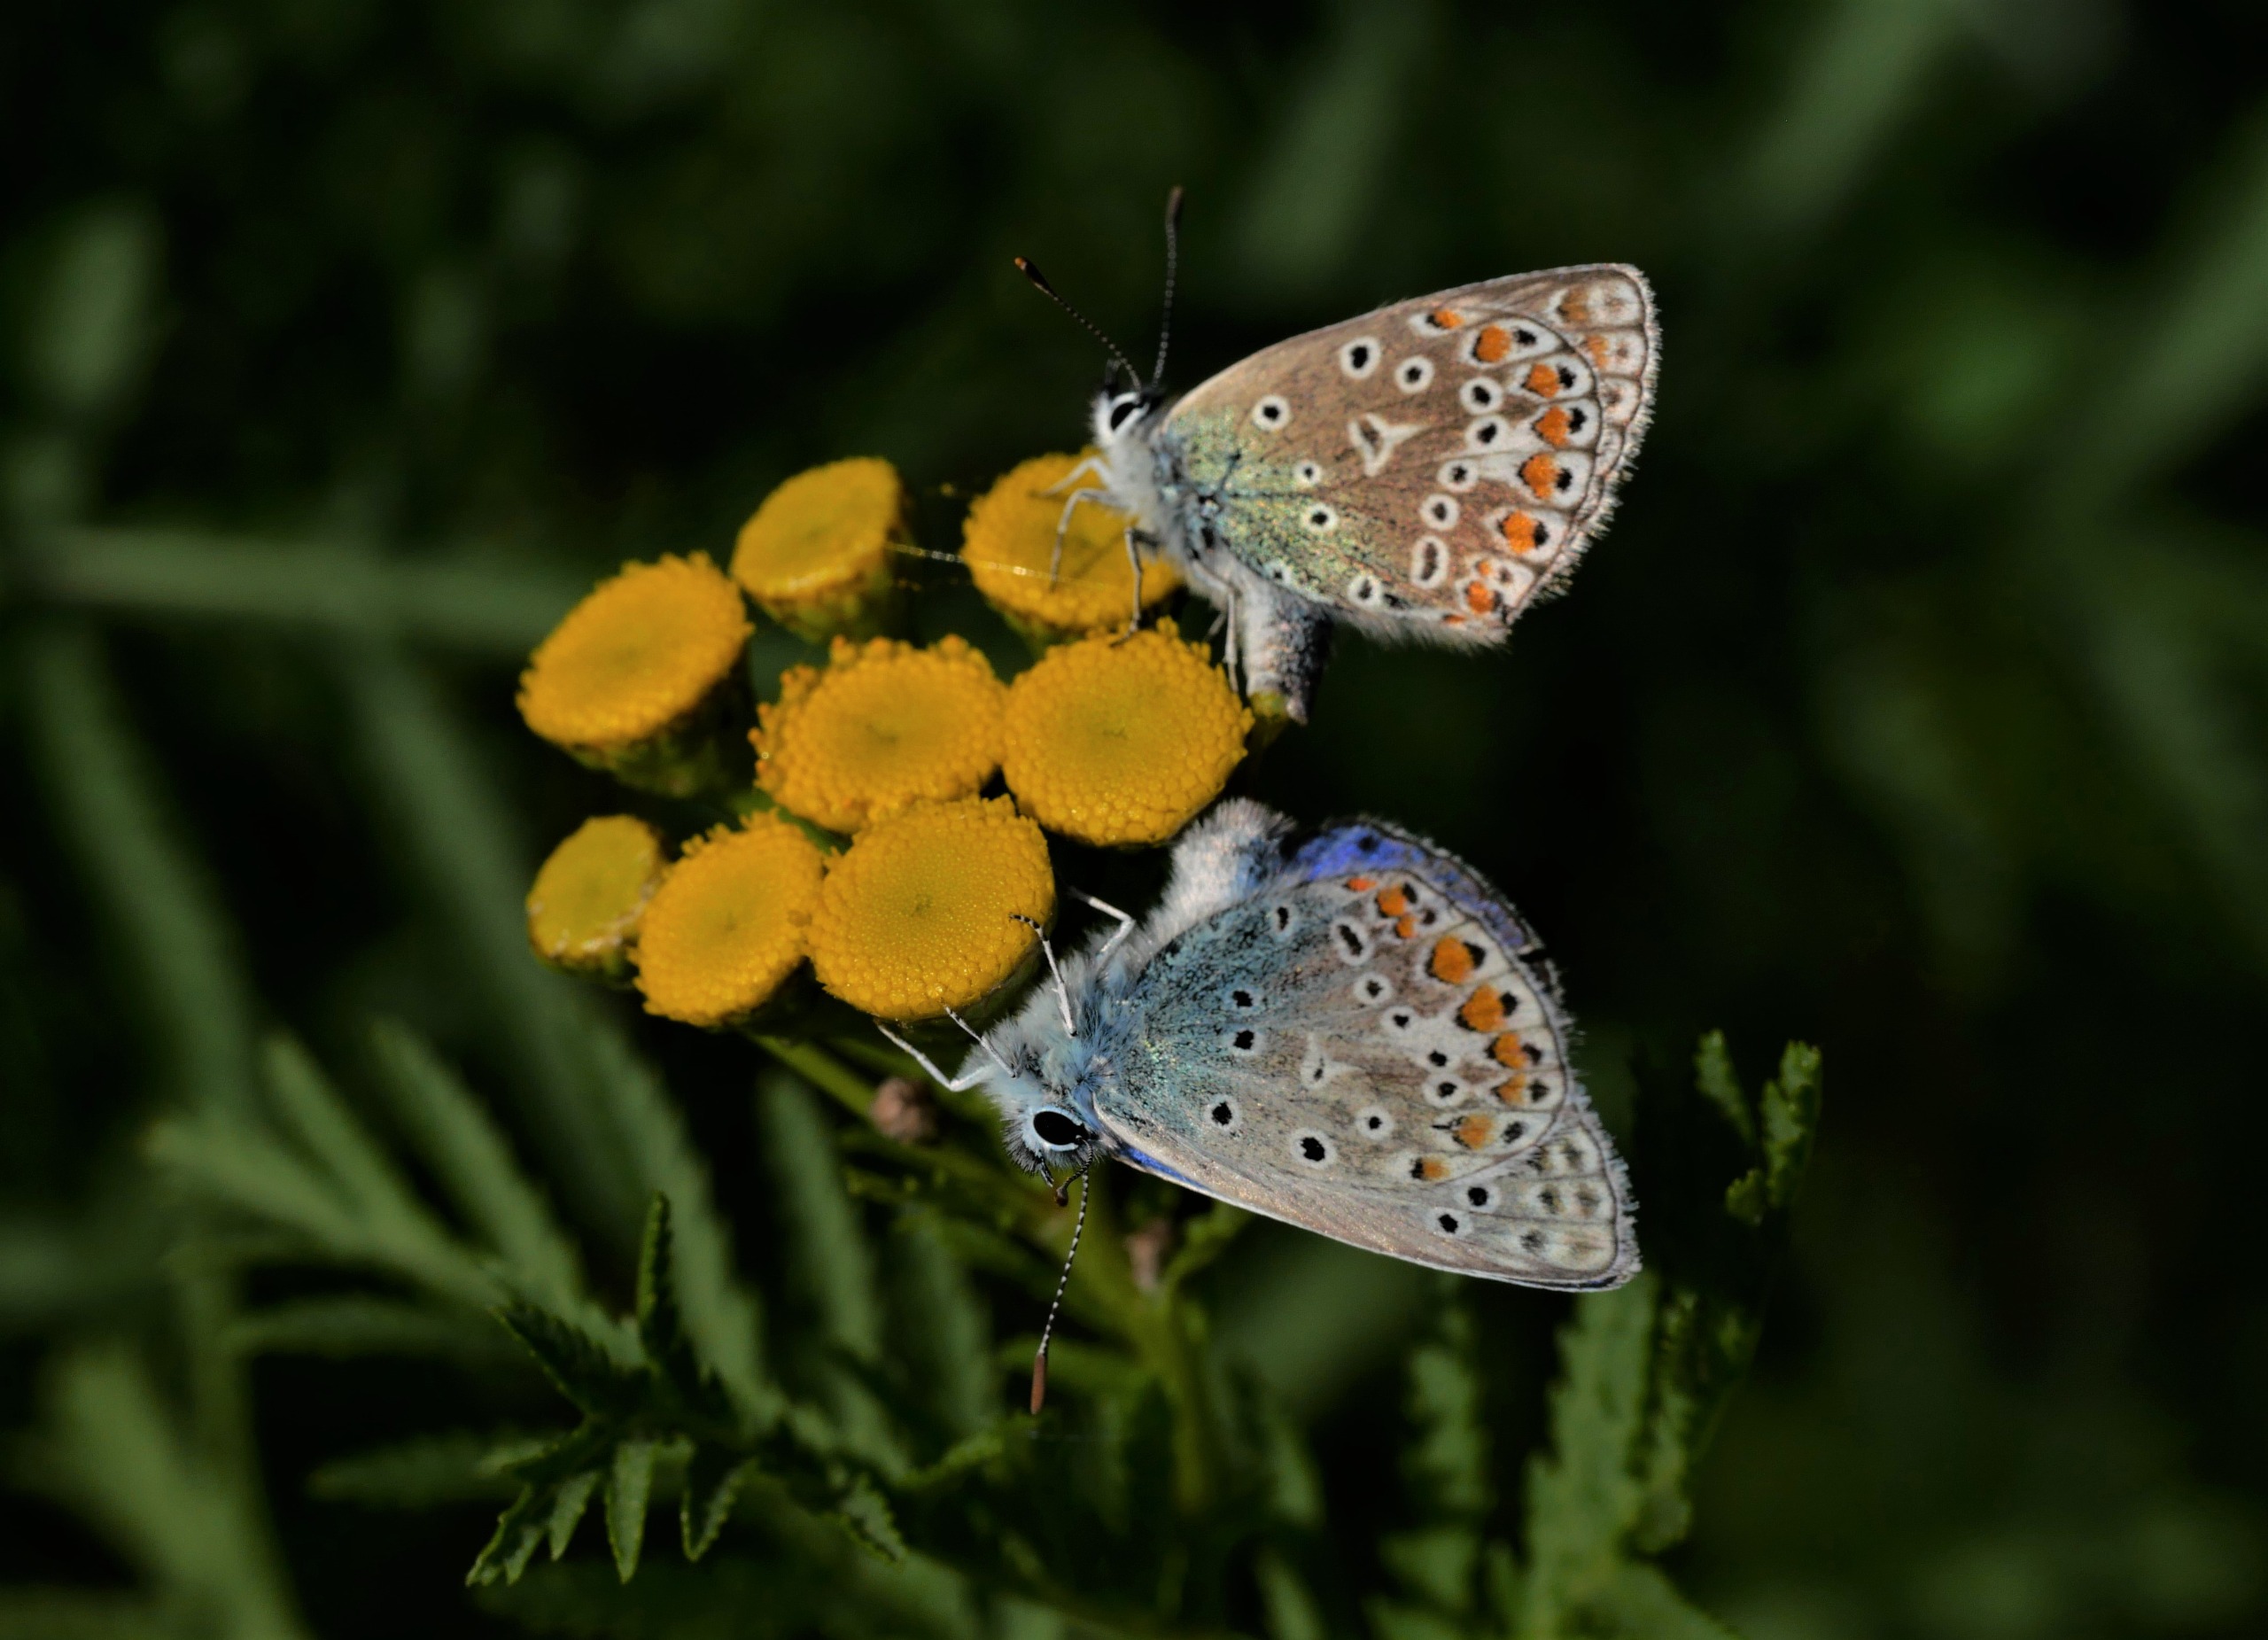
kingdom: Animalia
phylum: Arthropoda
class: Insecta
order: Lepidoptera
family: Lycaenidae
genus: Polyommatus
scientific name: Polyommatus icarus
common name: Almindelig blåfugl
